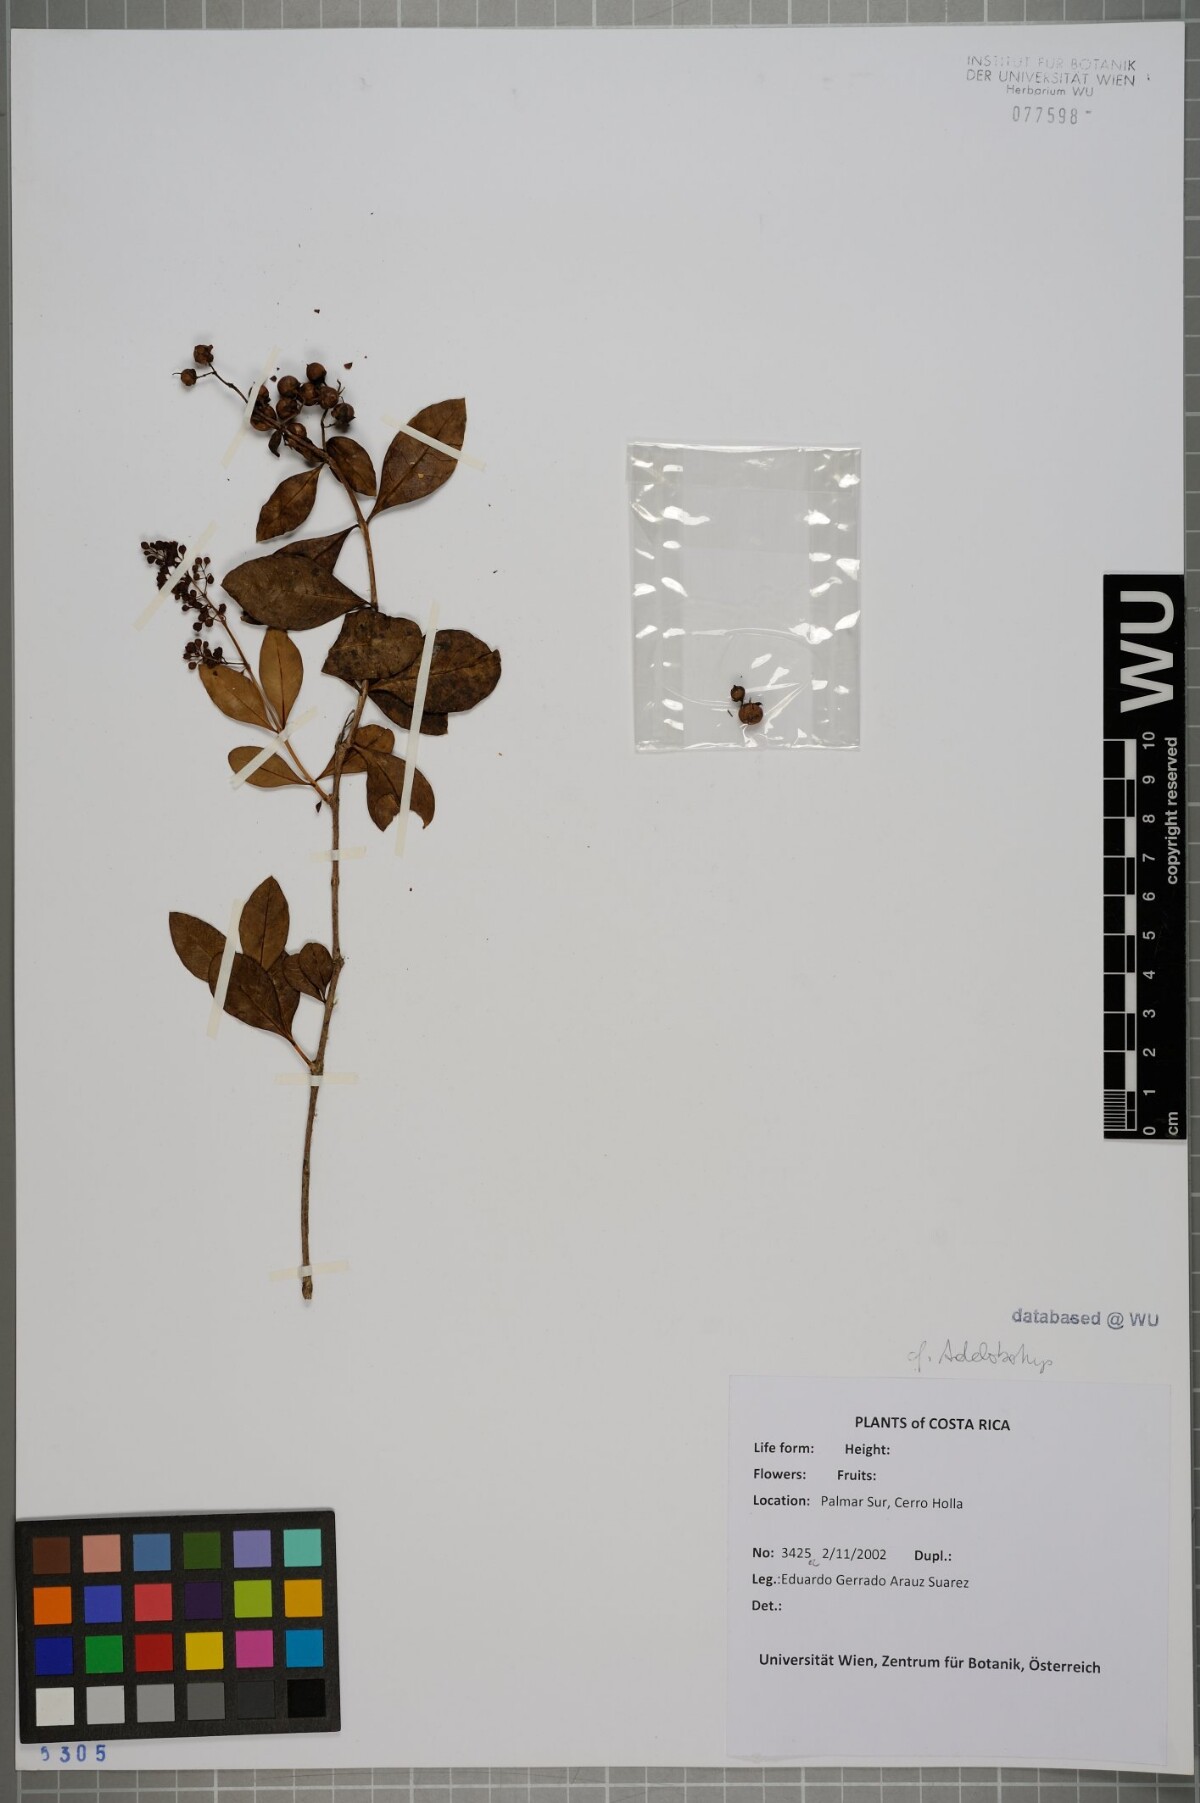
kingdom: Plantae
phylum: Tracheophyta
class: Magnoliopsida
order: Myrtales
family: Melastomataceae
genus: Adelobotrys
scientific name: Adelobotrys
